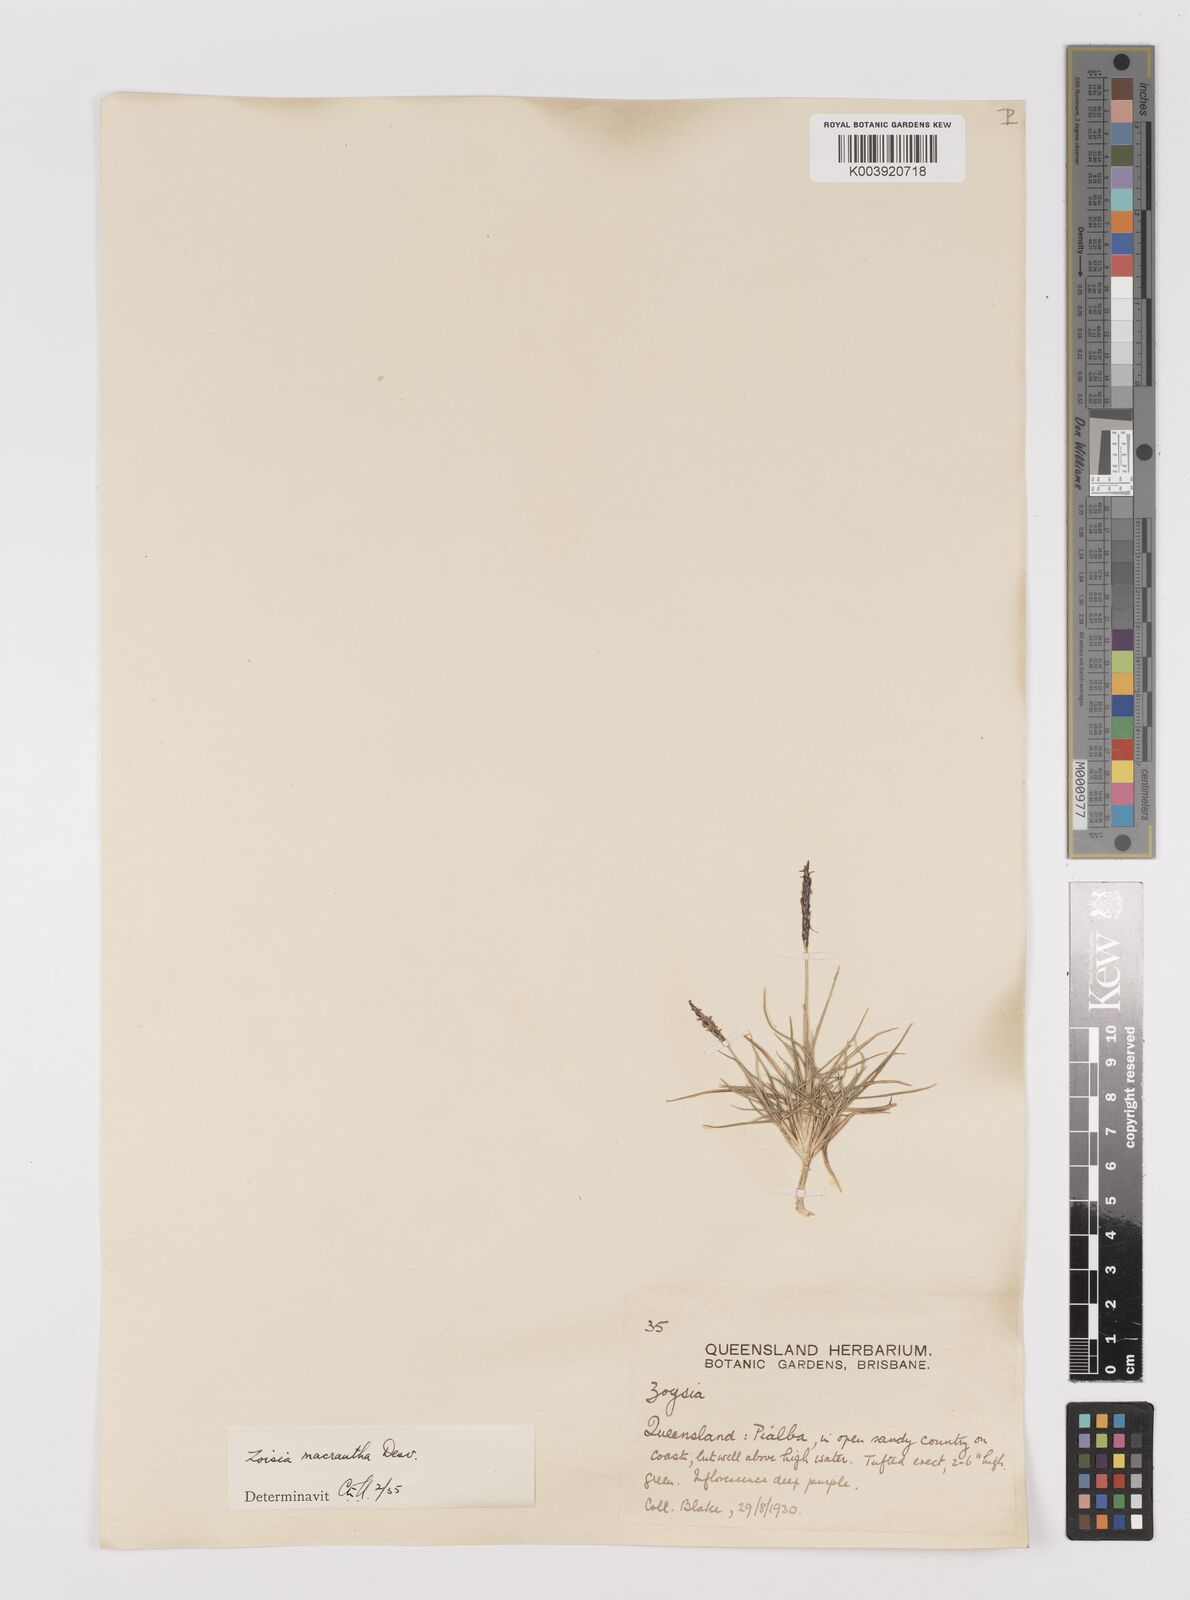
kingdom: Plantae
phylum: Tracheophyta
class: Liliopsida
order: Poales
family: Poaceae
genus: Zoysia
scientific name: Zoysia macrantha
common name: Korean lawn grass
